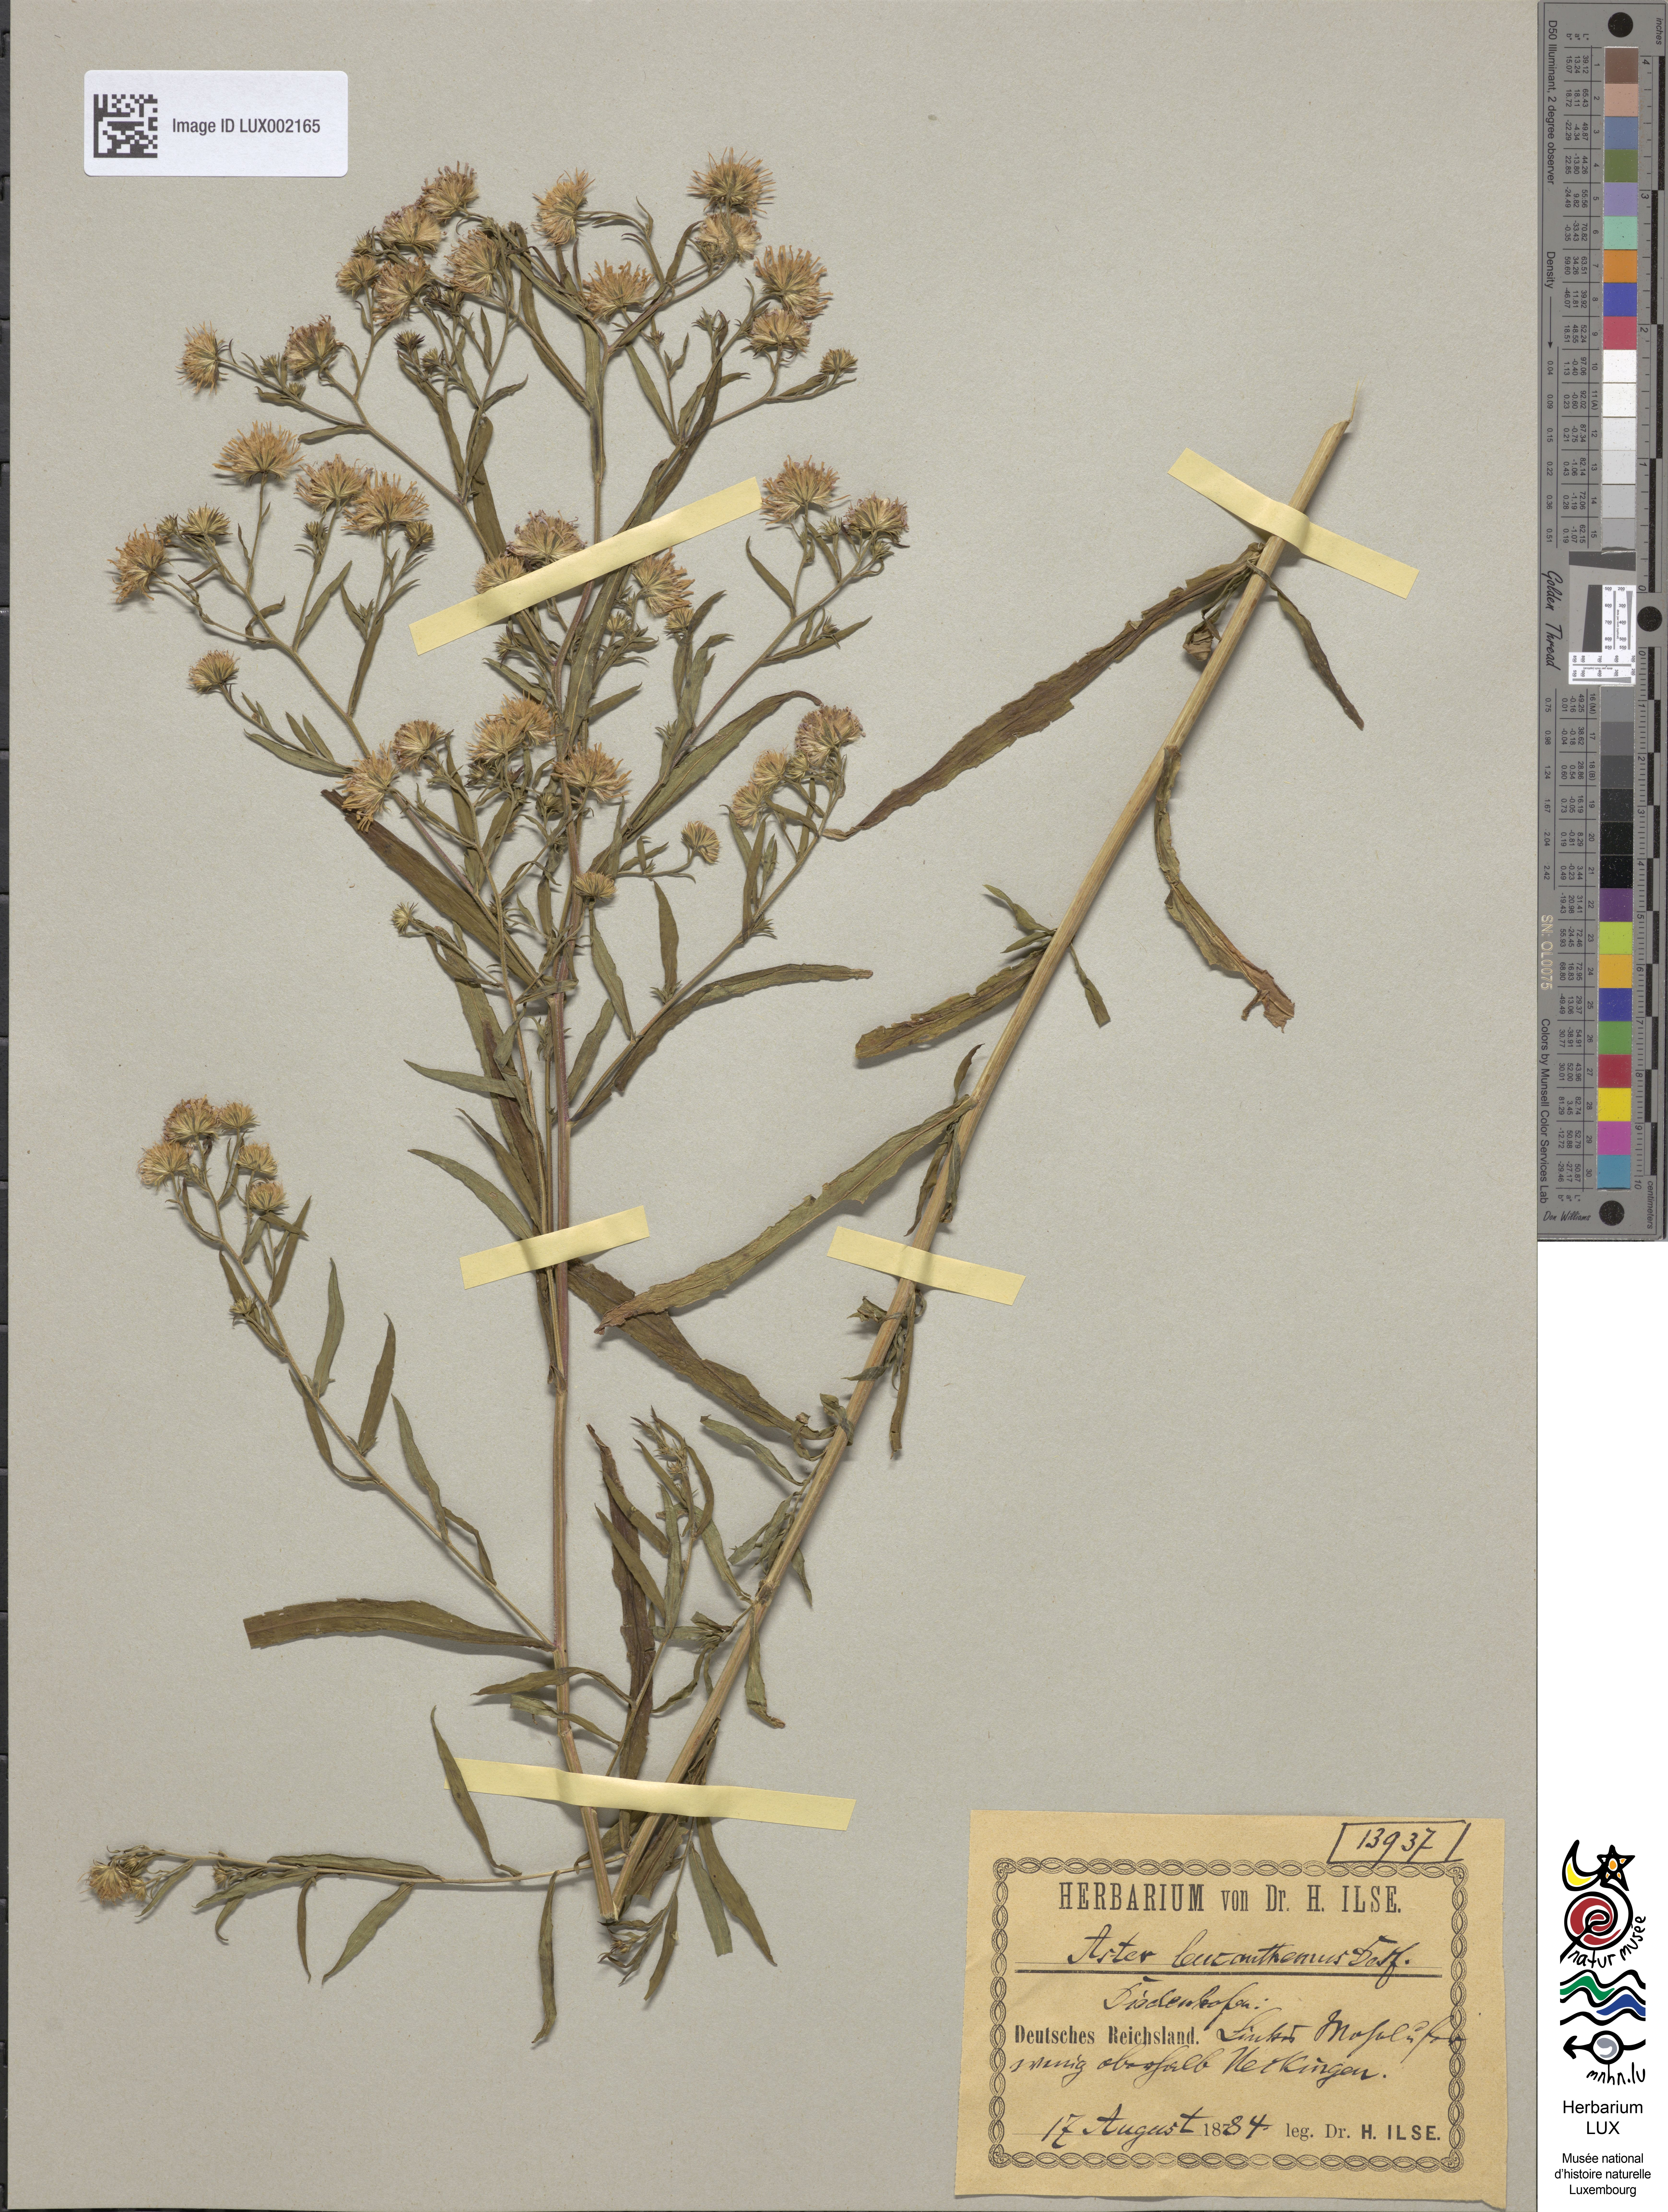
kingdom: Plantae
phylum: Tracheophyta
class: Magnoliopsida
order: Asterales
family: Asteraceae
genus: Symphyotrichum
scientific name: Symphyotrichum tradescantii
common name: Shore aster
